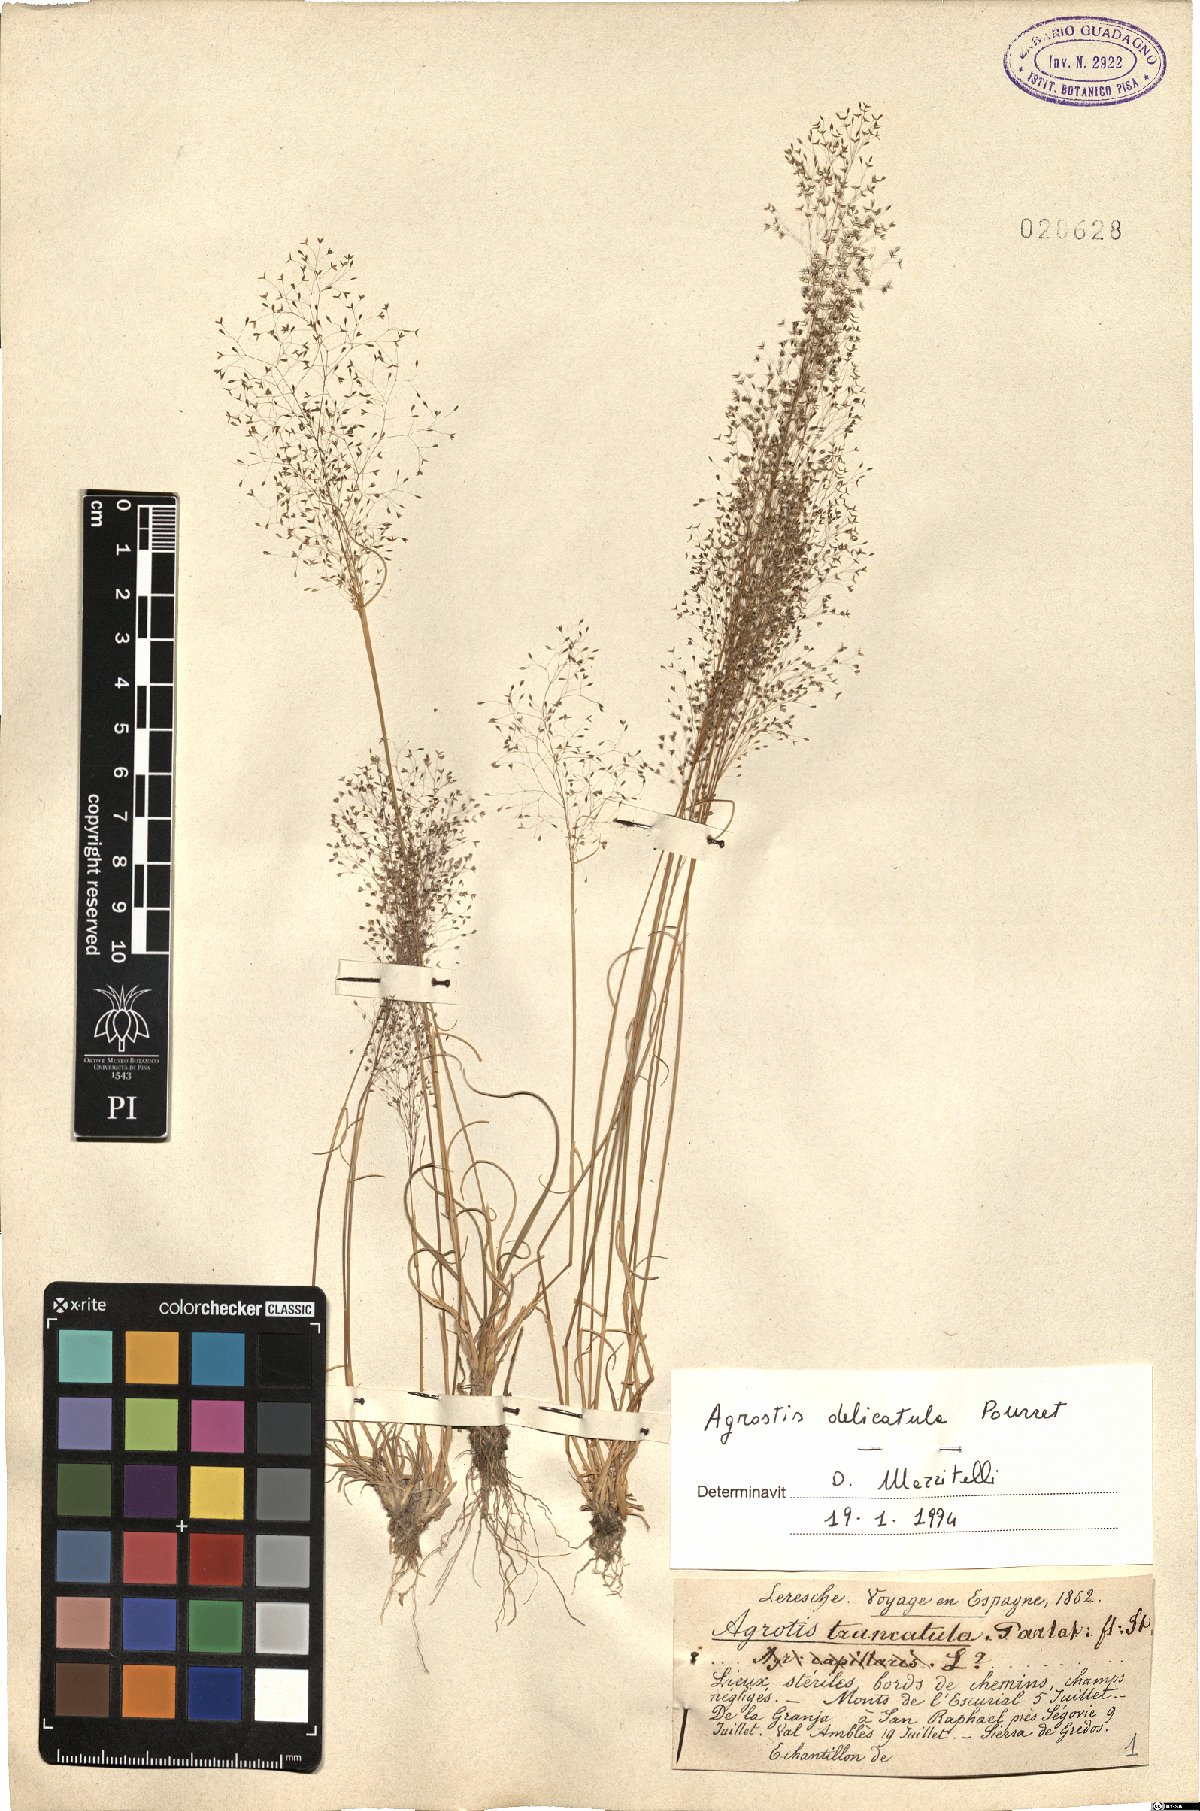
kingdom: Plantae
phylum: Tracheophyta
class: Liliopsida
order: Poales
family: Poaceae
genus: Agrostis
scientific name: Agrostis castellana
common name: Highland bent
